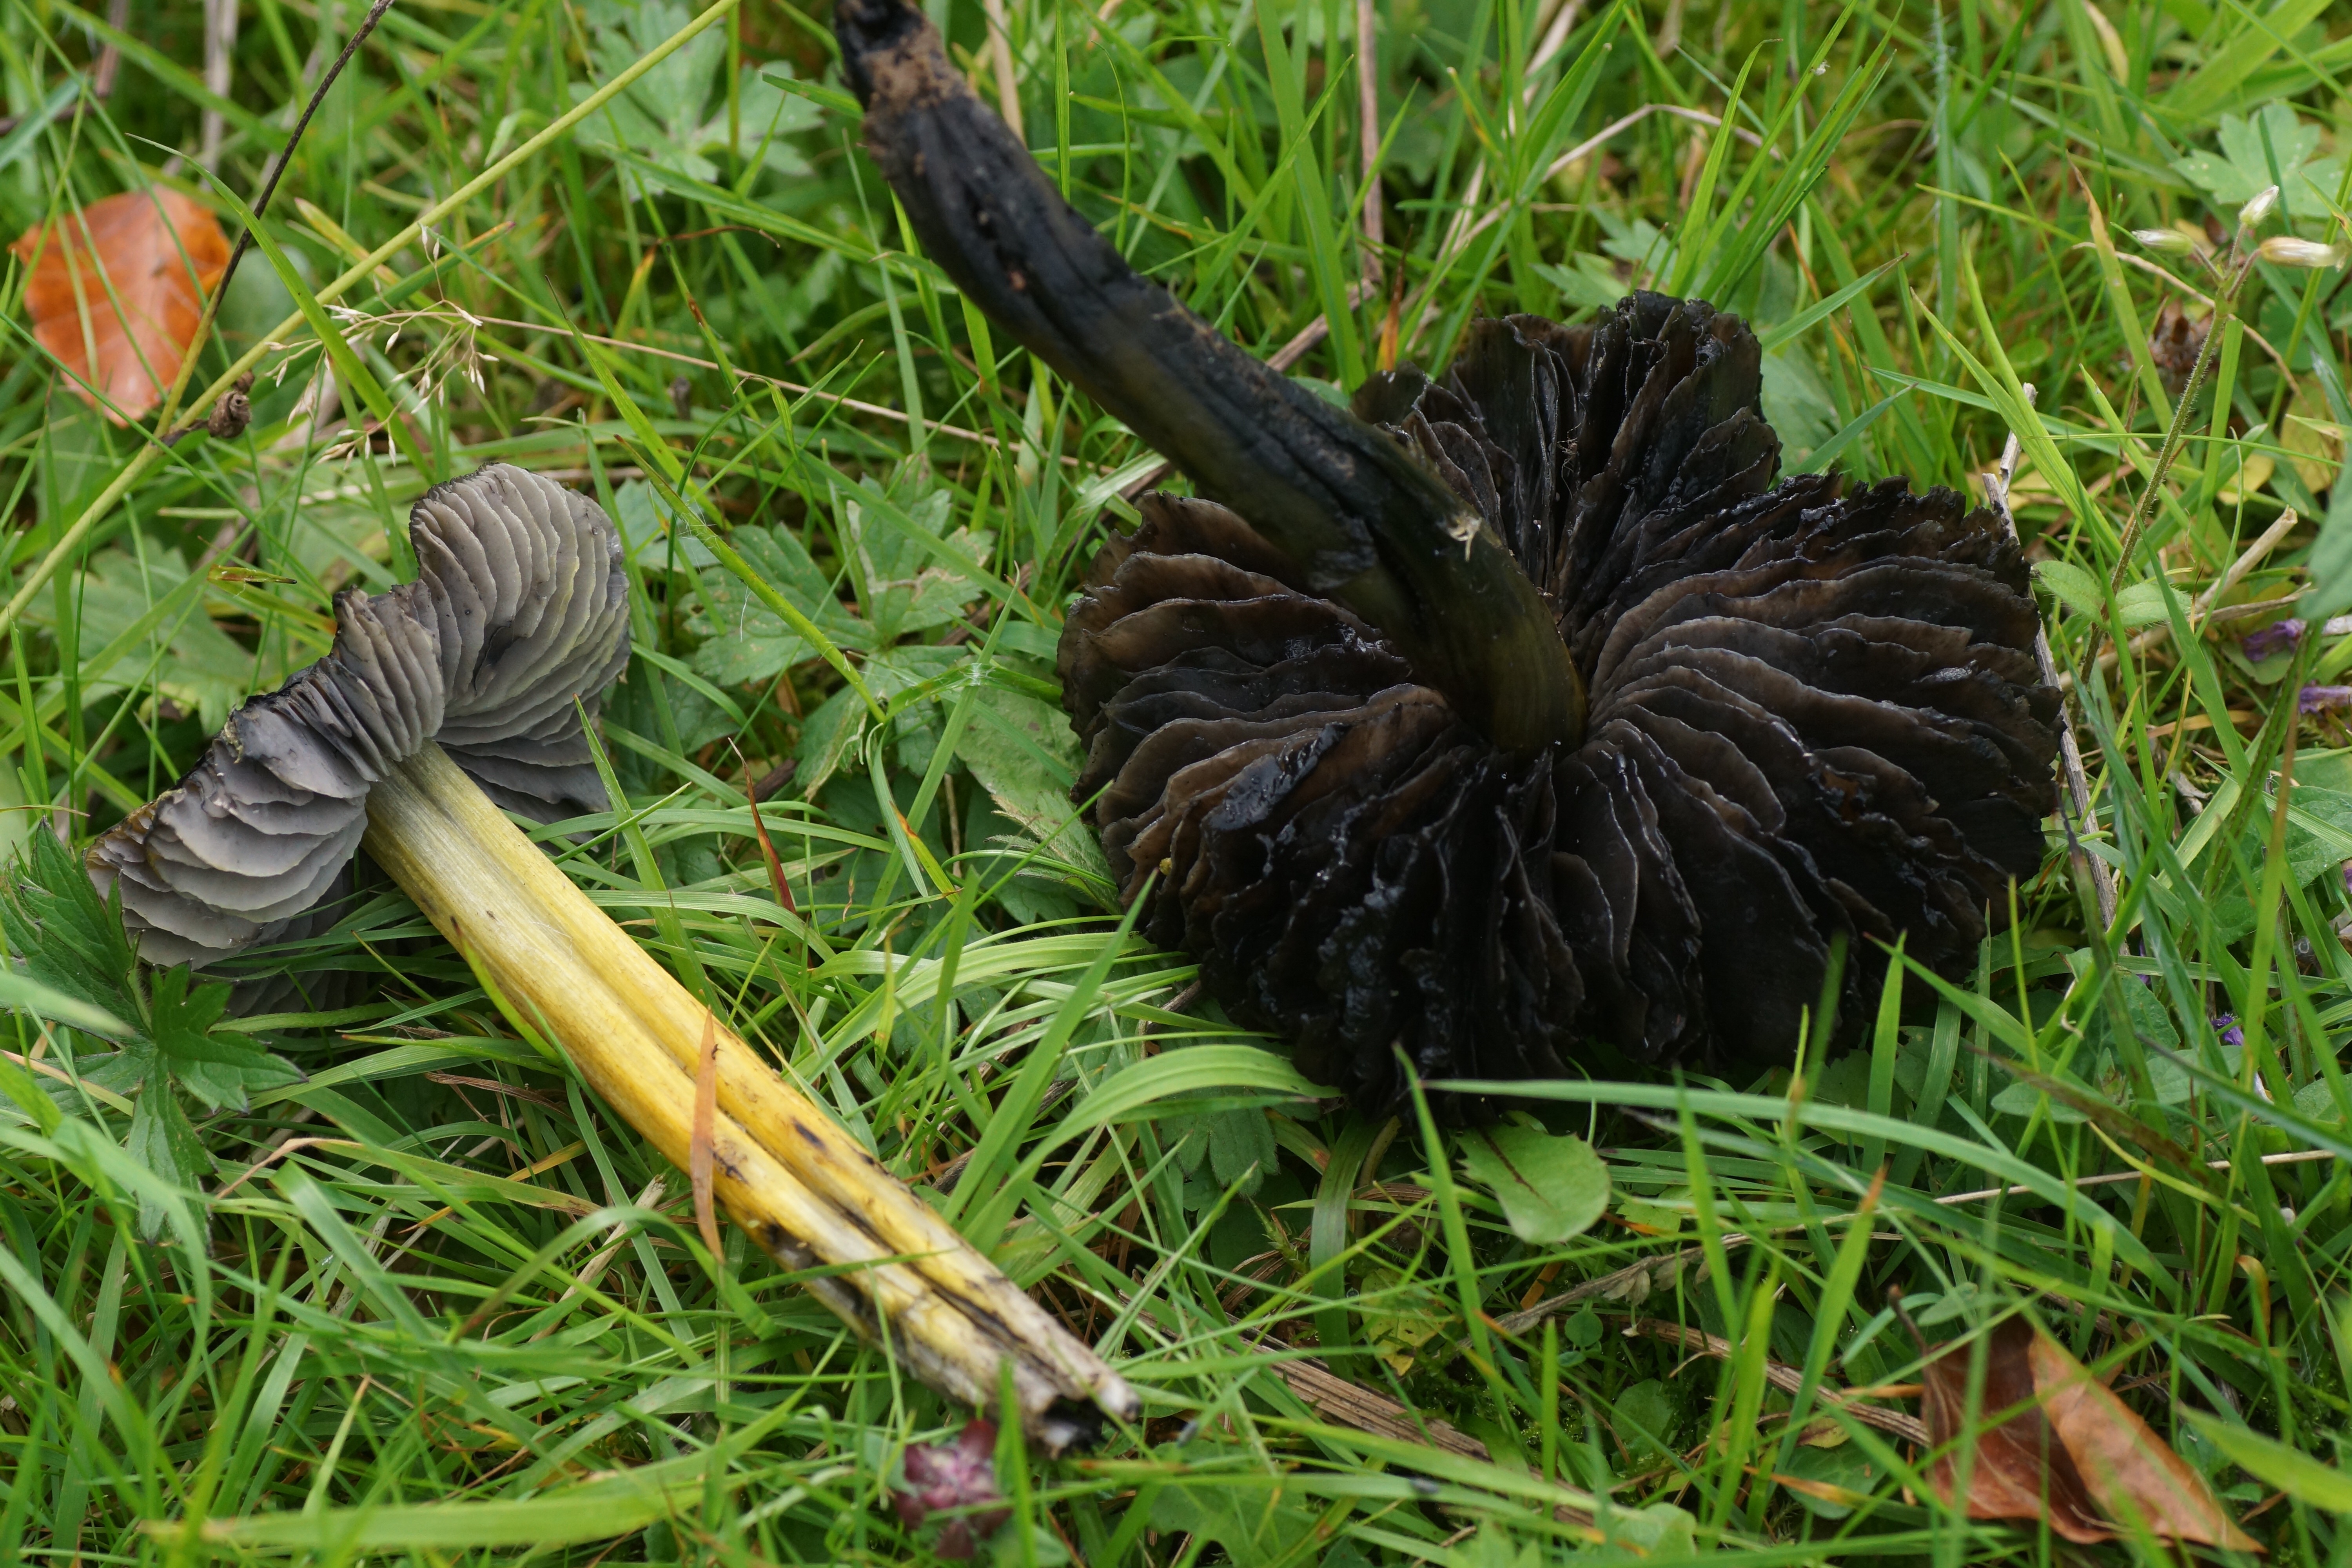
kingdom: Fungi
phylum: Basidiomycota
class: Agaricomycetes
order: Agaricales
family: Hygrophoraceae
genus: Hygrocybe
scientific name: Hygrocybe conica
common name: kegle-vokshat
